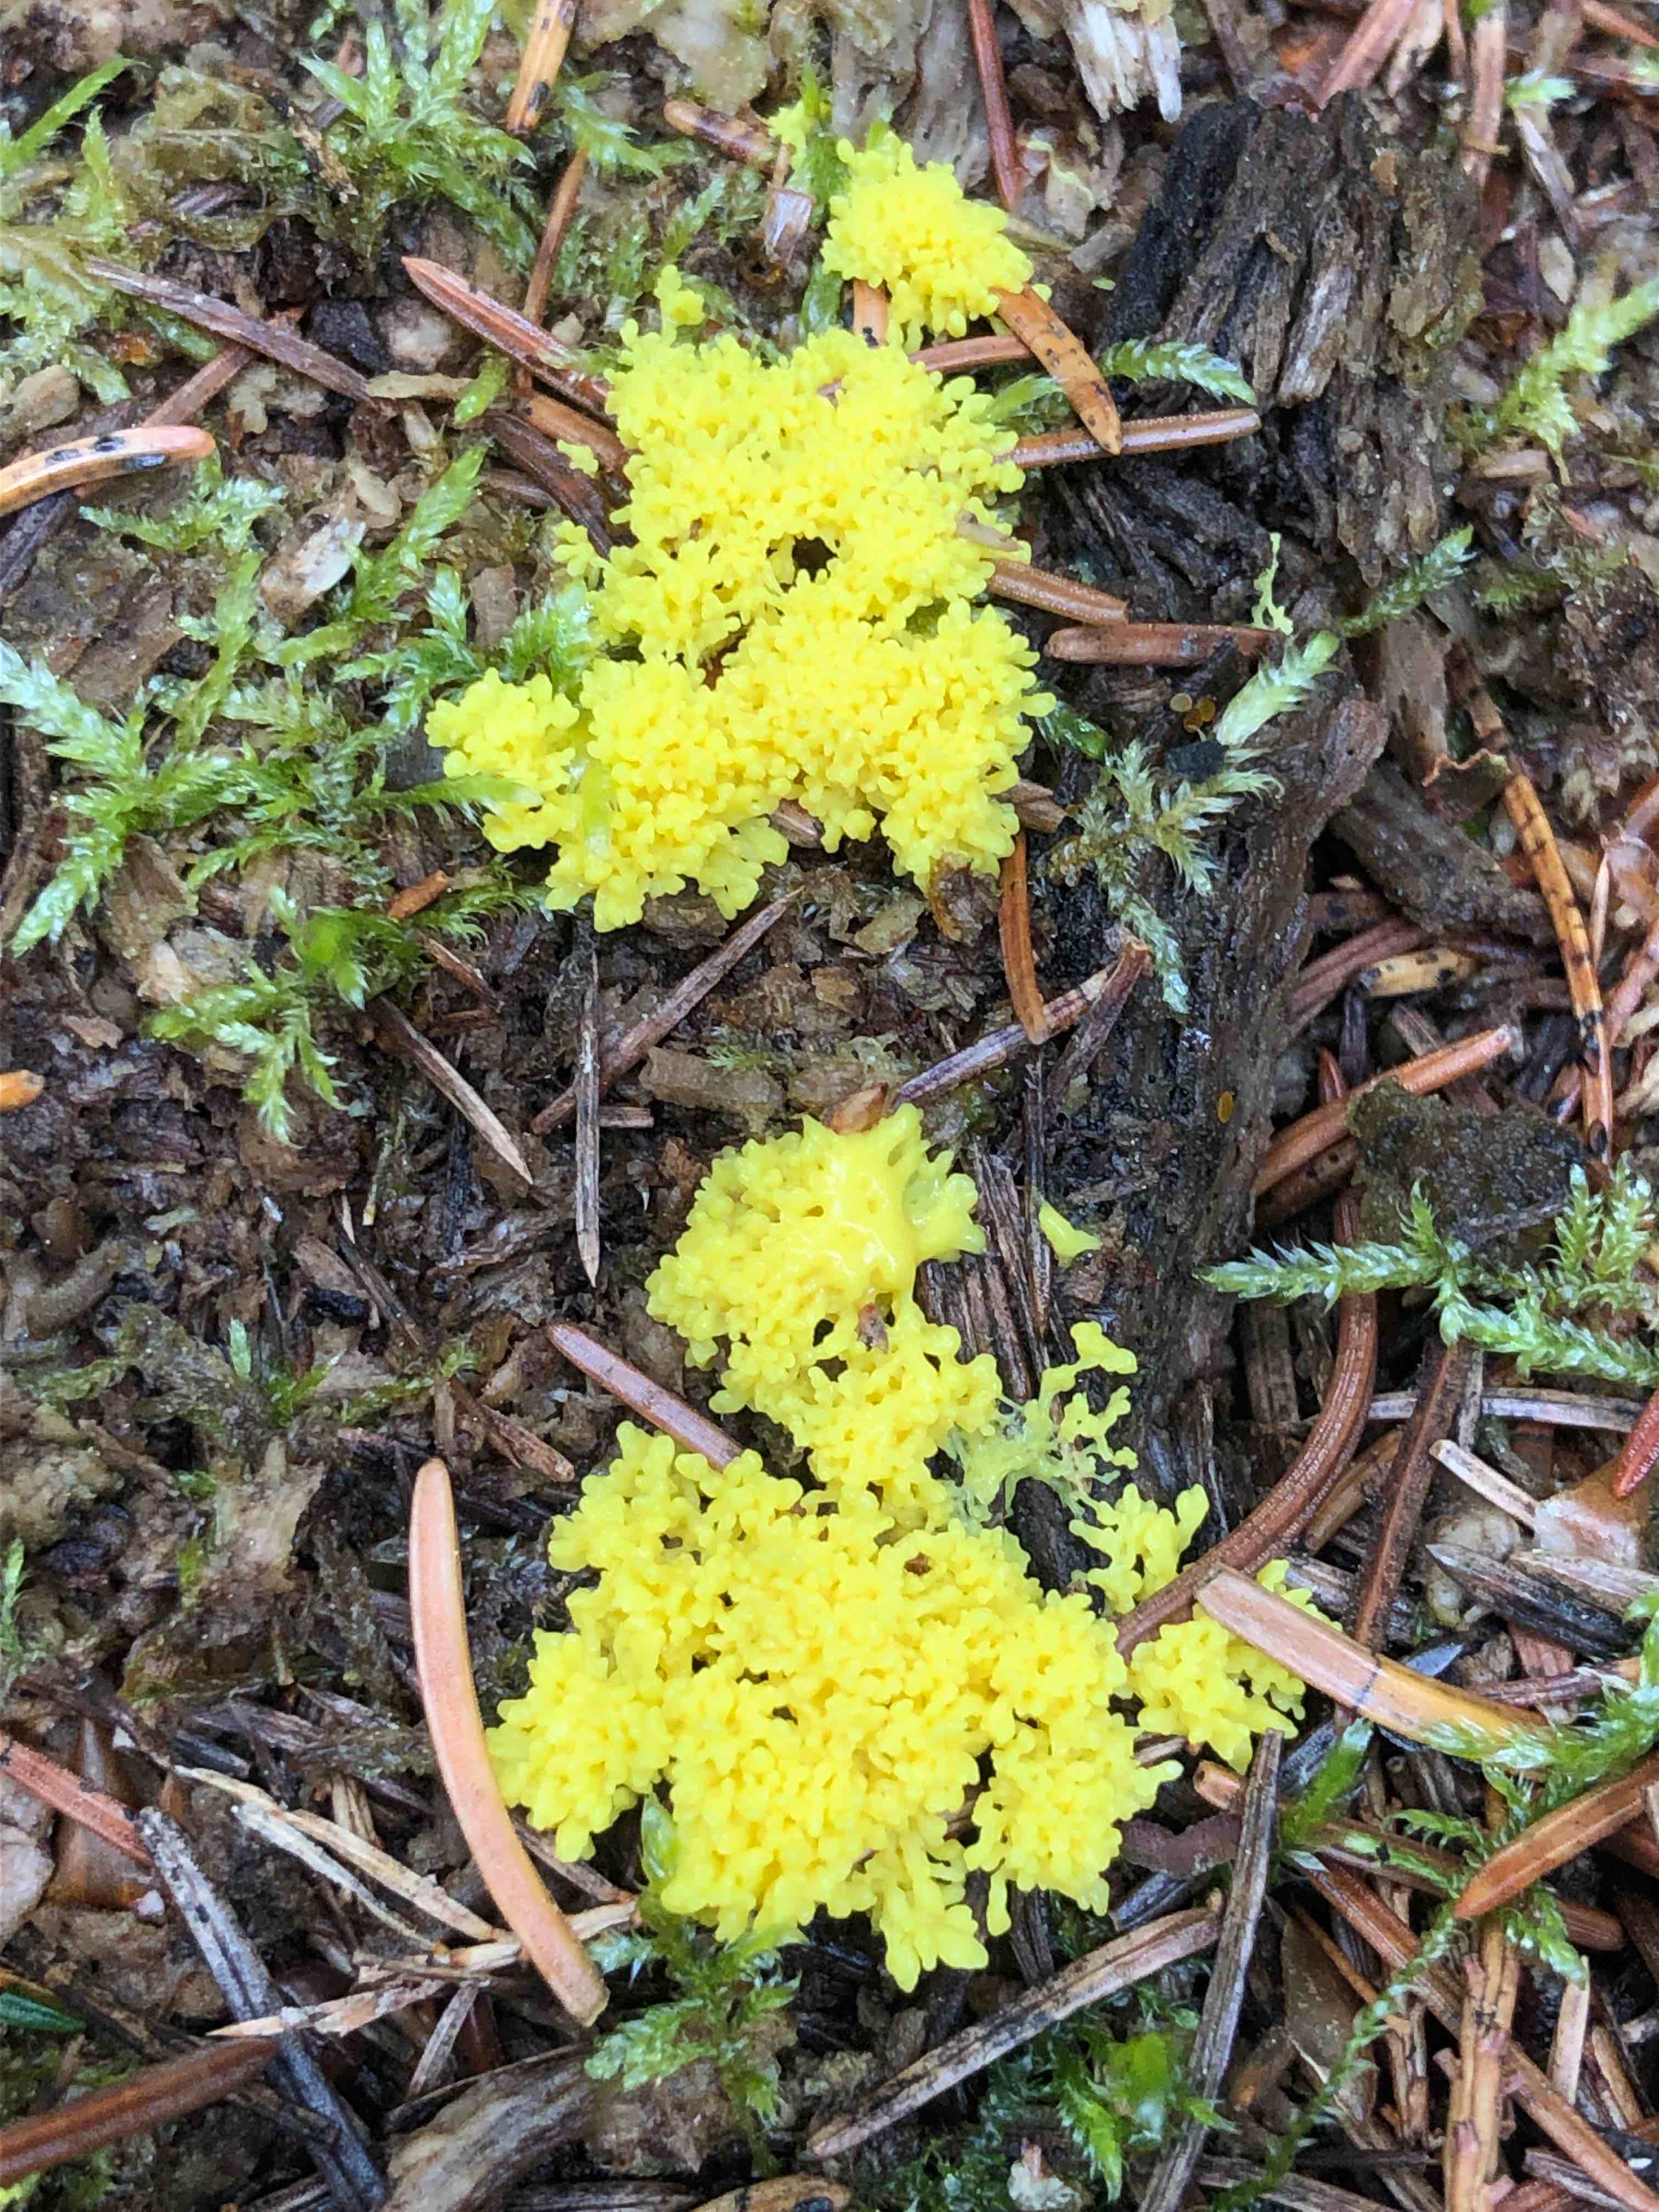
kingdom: Protozoa
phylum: Mycetozoa
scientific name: Mycetozoa
